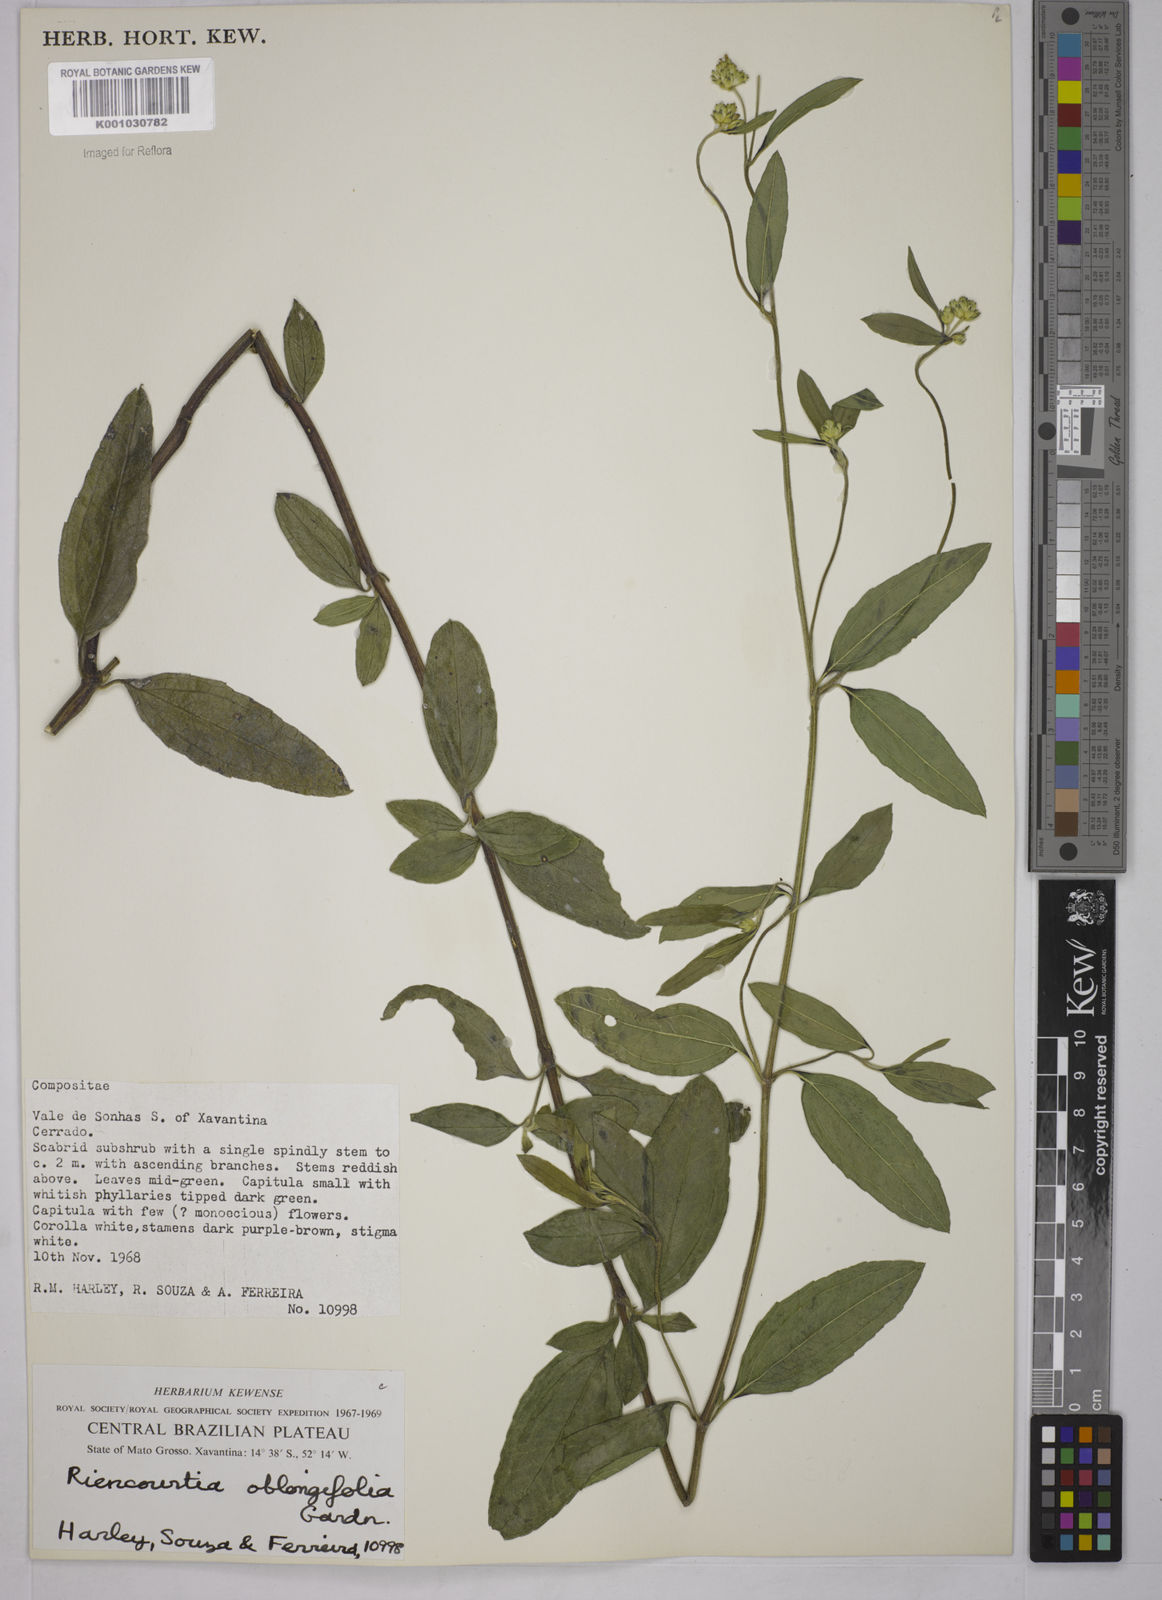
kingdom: Plantae
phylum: Tracheophyta
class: Magnoliopsida
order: Asterales
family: Asteraceae
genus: Riencourtia
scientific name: Riencourtia oblongifolia
